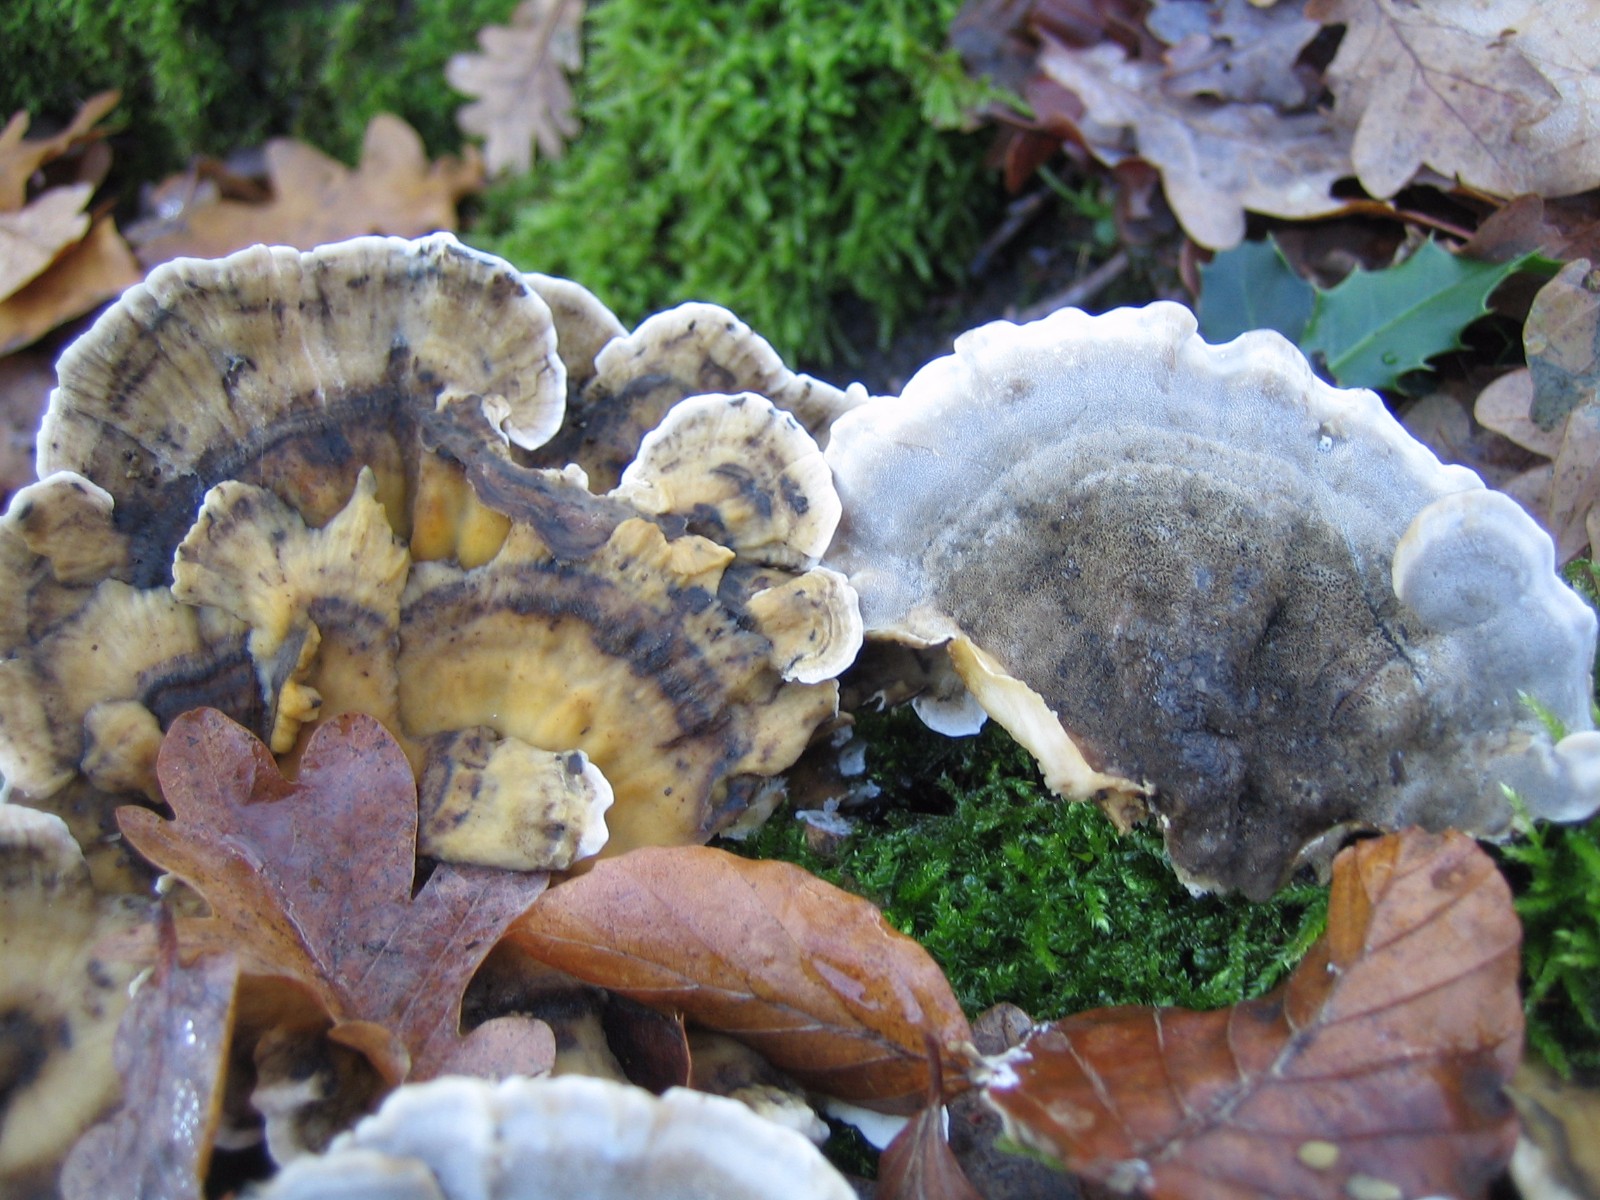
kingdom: Fungi
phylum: Basidiomycota
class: Agaricomycetes
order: Polyporales
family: Phanerochaetaceae
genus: Bjerkandera
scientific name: Bjerkandera adusta
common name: sveden sodporesvamp
